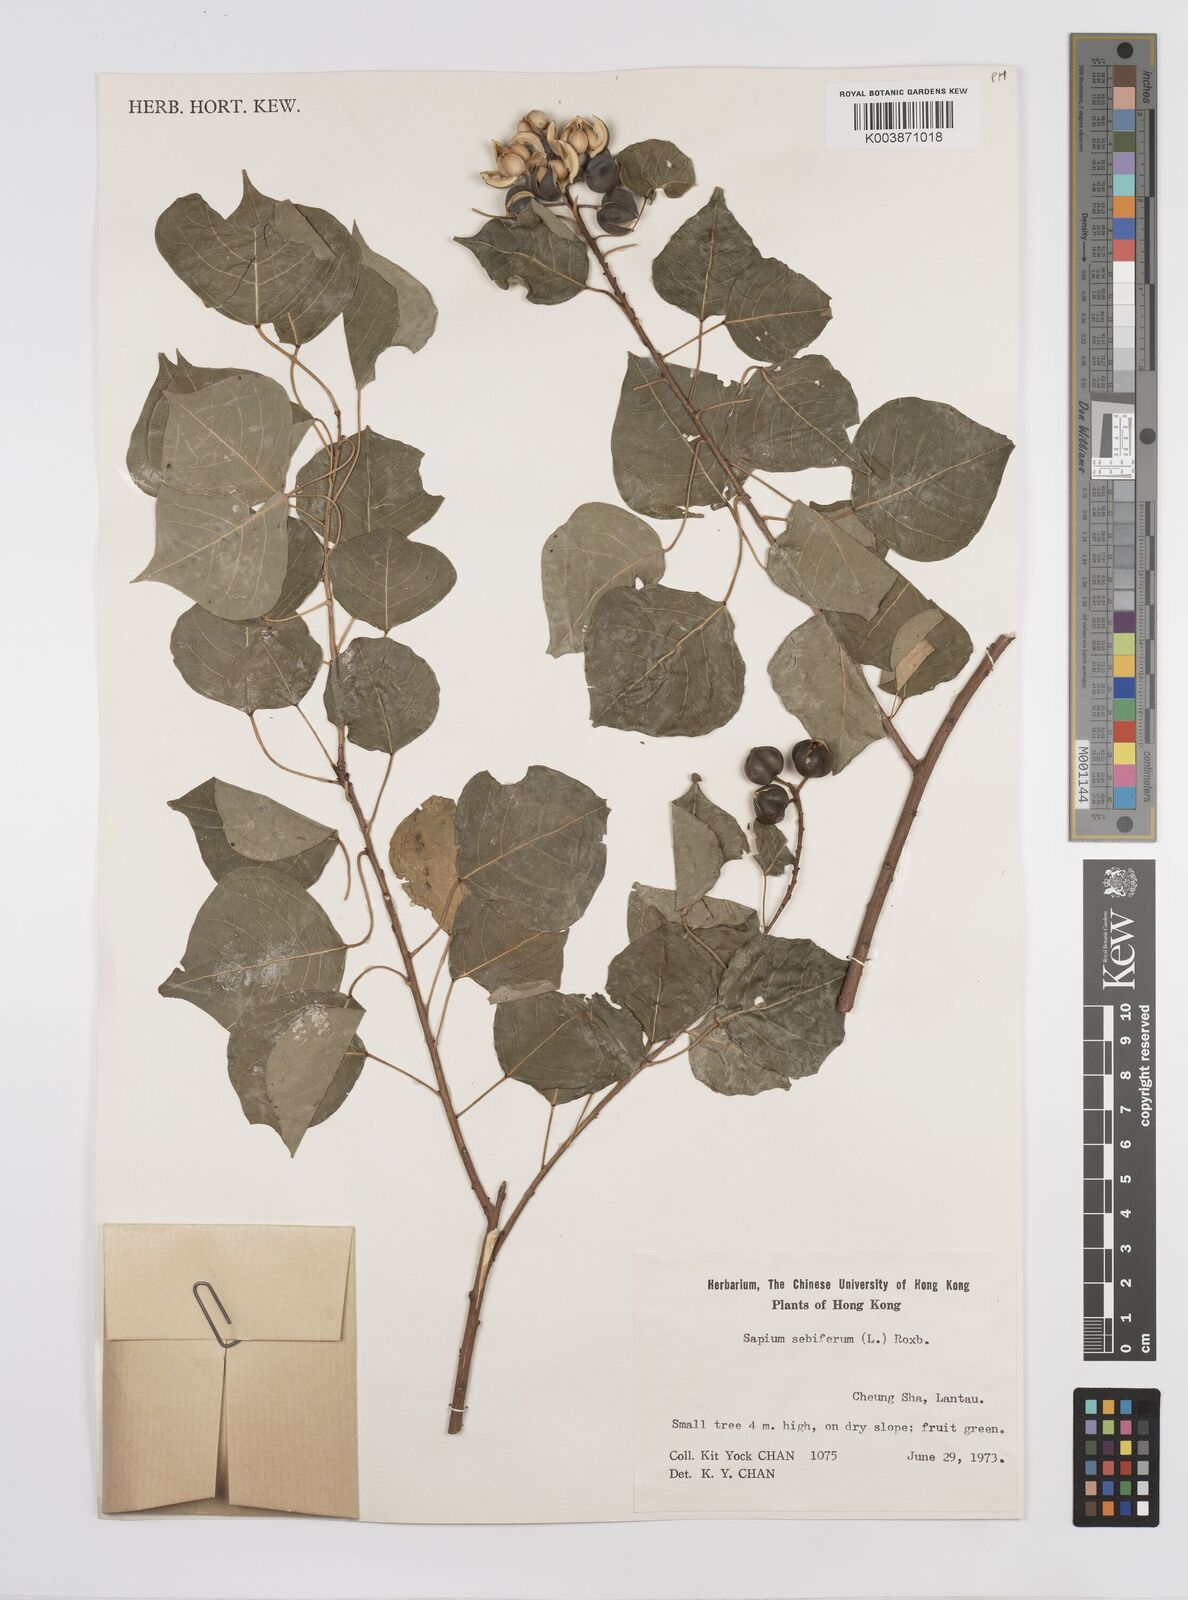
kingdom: Plantae
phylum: Tracheophyta
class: Magnoliopsida
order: Malpighiales
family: Euphorbiaceae
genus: Triadica
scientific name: Triadica sebifera
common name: Chinese tallow
